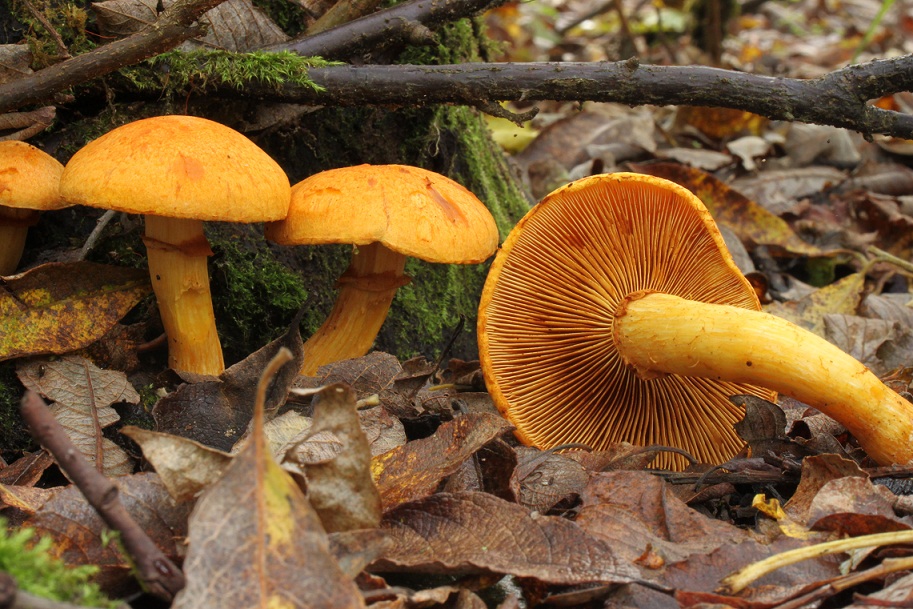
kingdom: Fungi
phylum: Basidiomycota
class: Agaricomycetes
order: Agaricales
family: Hymenogastraceae
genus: Gymnopilus
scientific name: Gymnopilus spectabilis
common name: fibret flammehat
